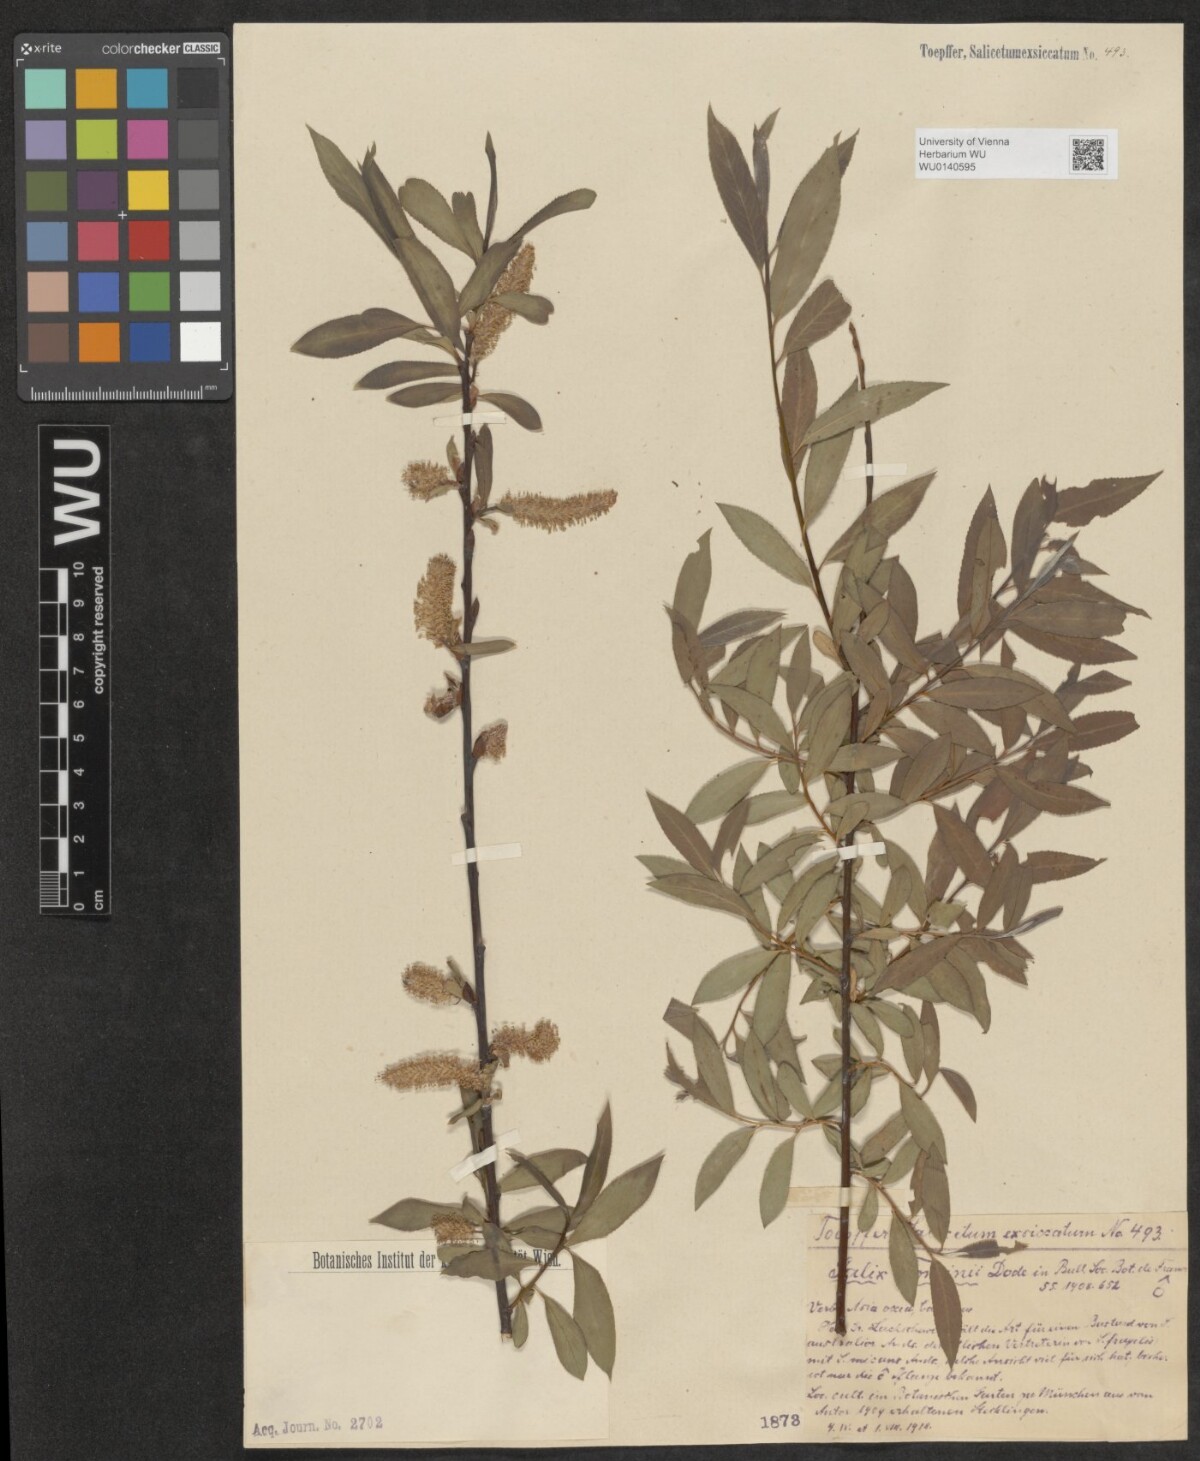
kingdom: Plantae
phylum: Tracheophyta
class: Magnoliopsida
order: Malpighiales
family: Salicaceae
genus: Salix
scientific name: Salix tominii
